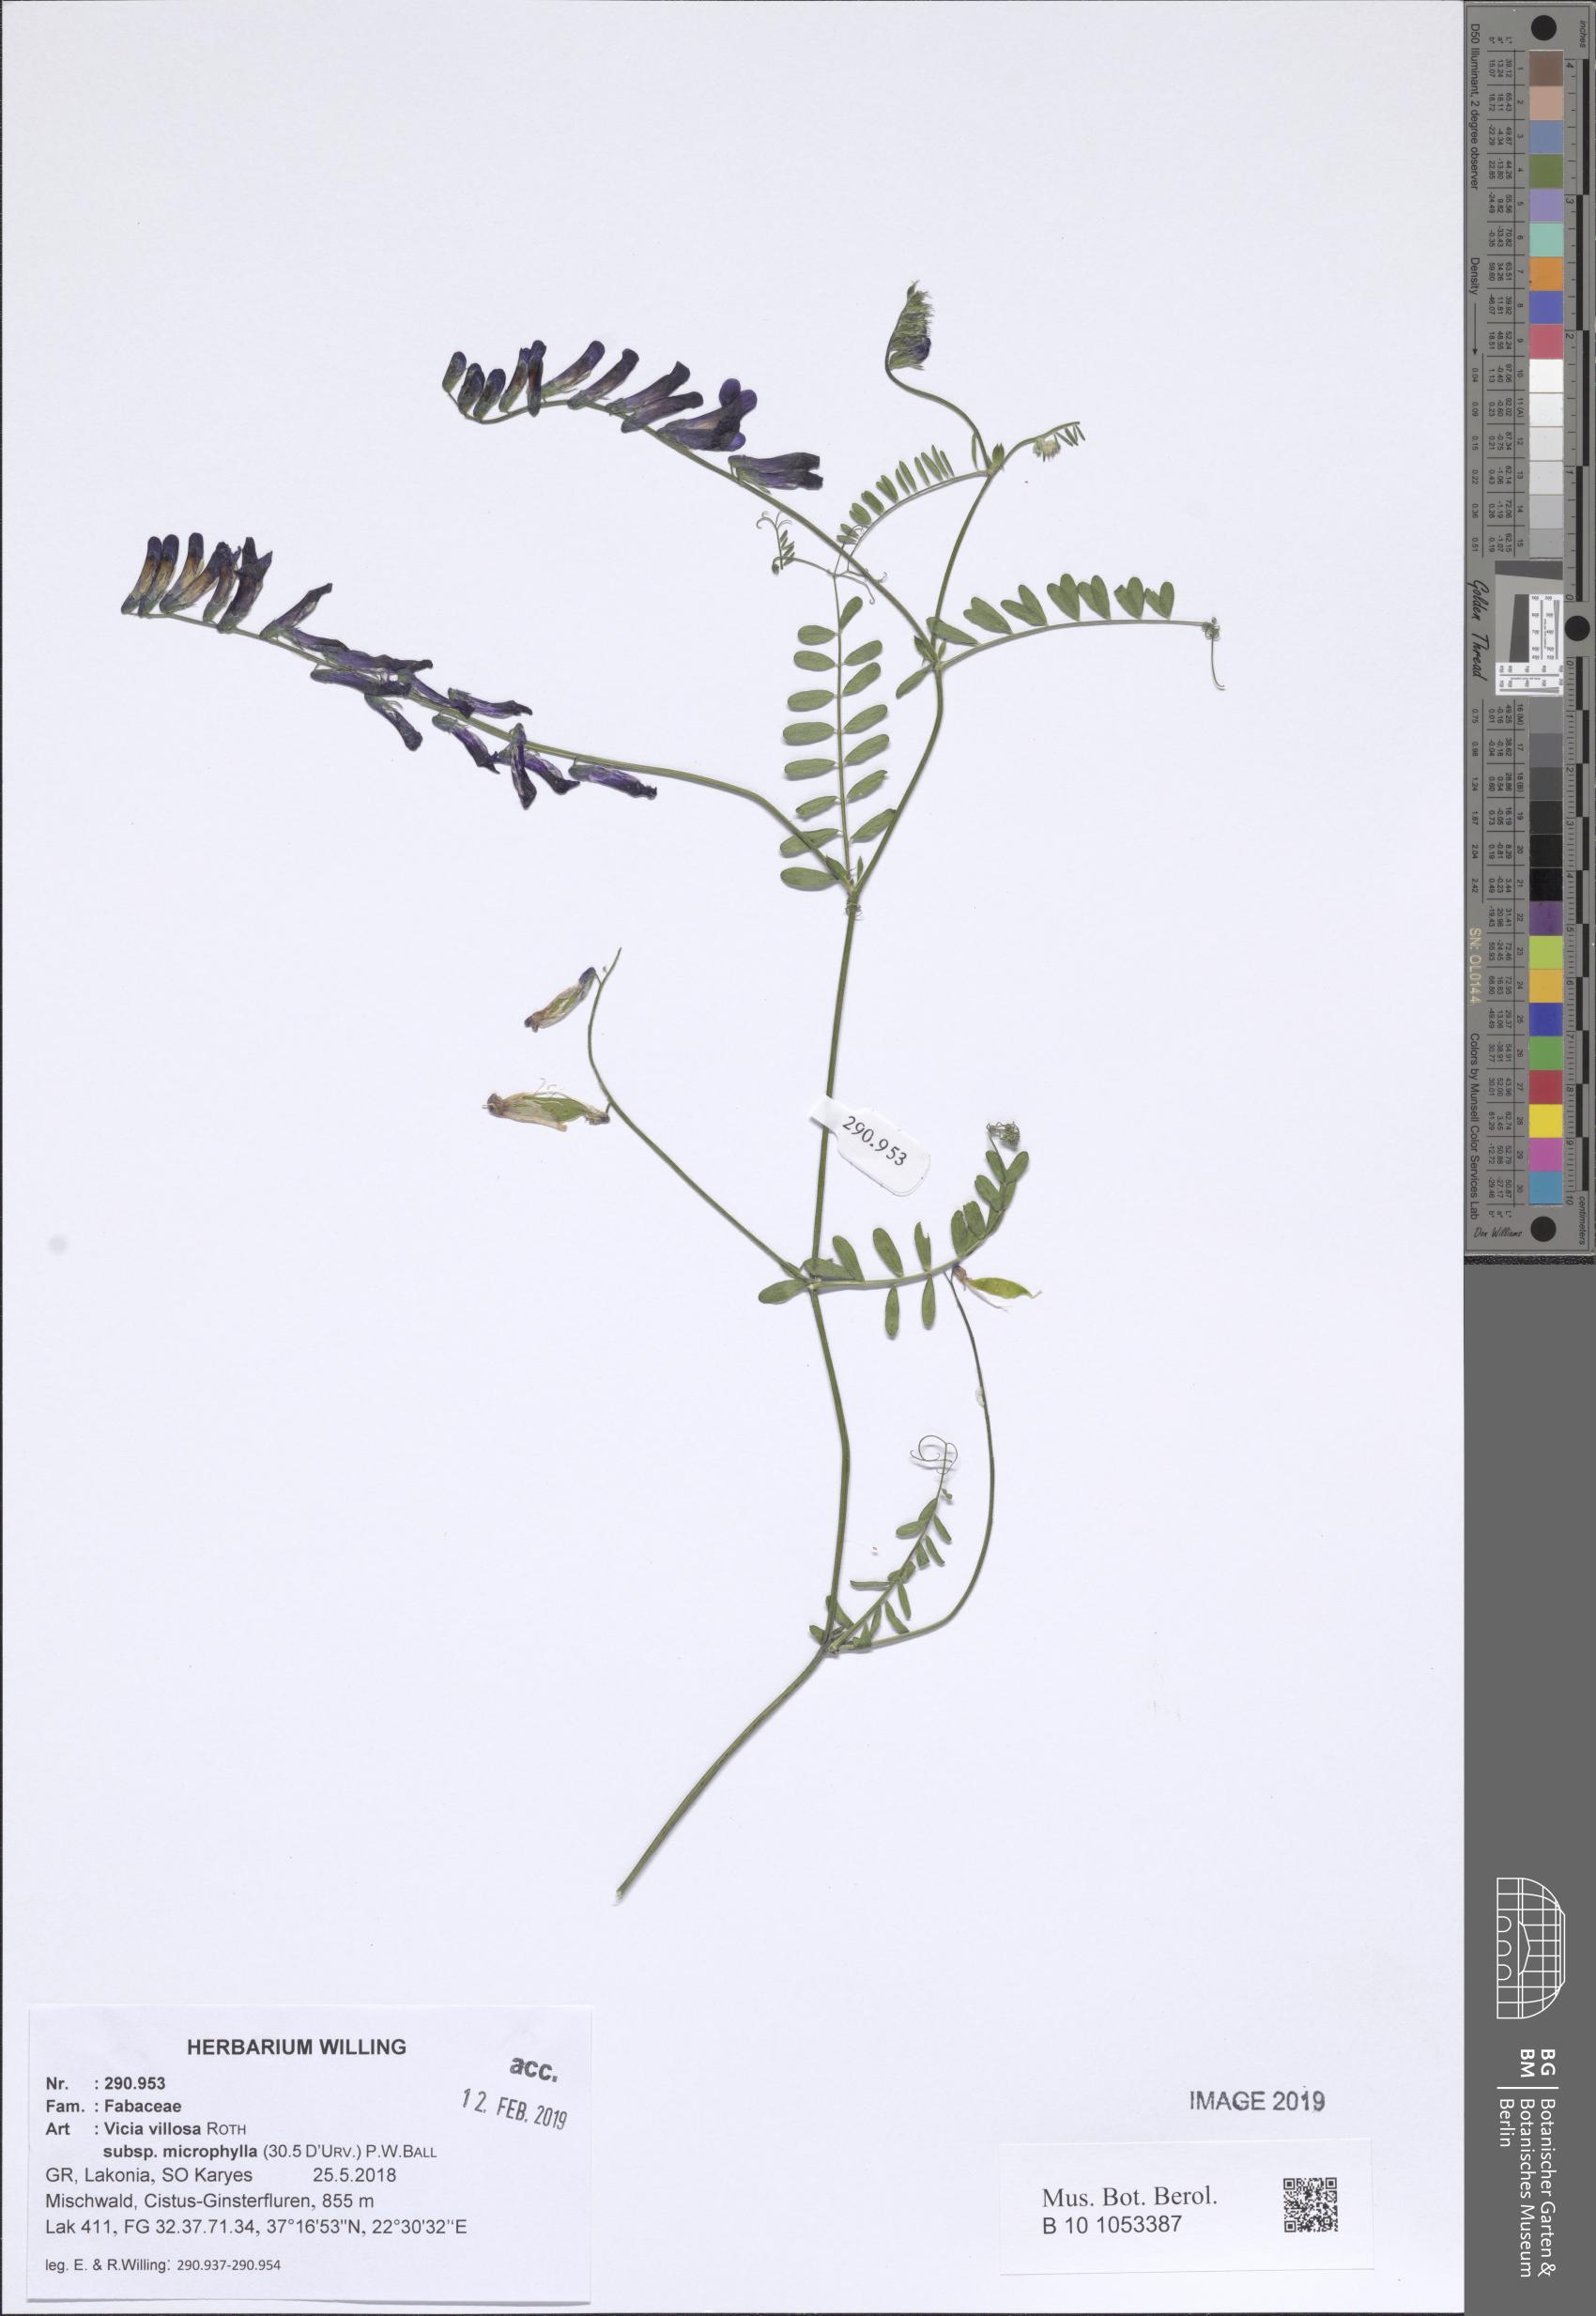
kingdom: Plantae
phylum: Tracheophyta
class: Magnoliopsida
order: Fabales
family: Fabaceae
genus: Vicia
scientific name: Vicia villosa
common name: Fodder vetch
